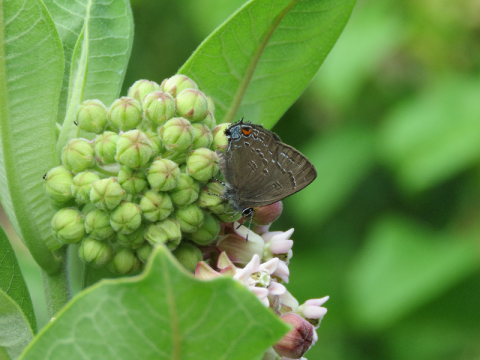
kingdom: Animalia
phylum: Arthropoda
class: Insecta
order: Lepidoptera
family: Lycaenidae
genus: Satyrium
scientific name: Satyrium calanus
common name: Banded Hairstreak
